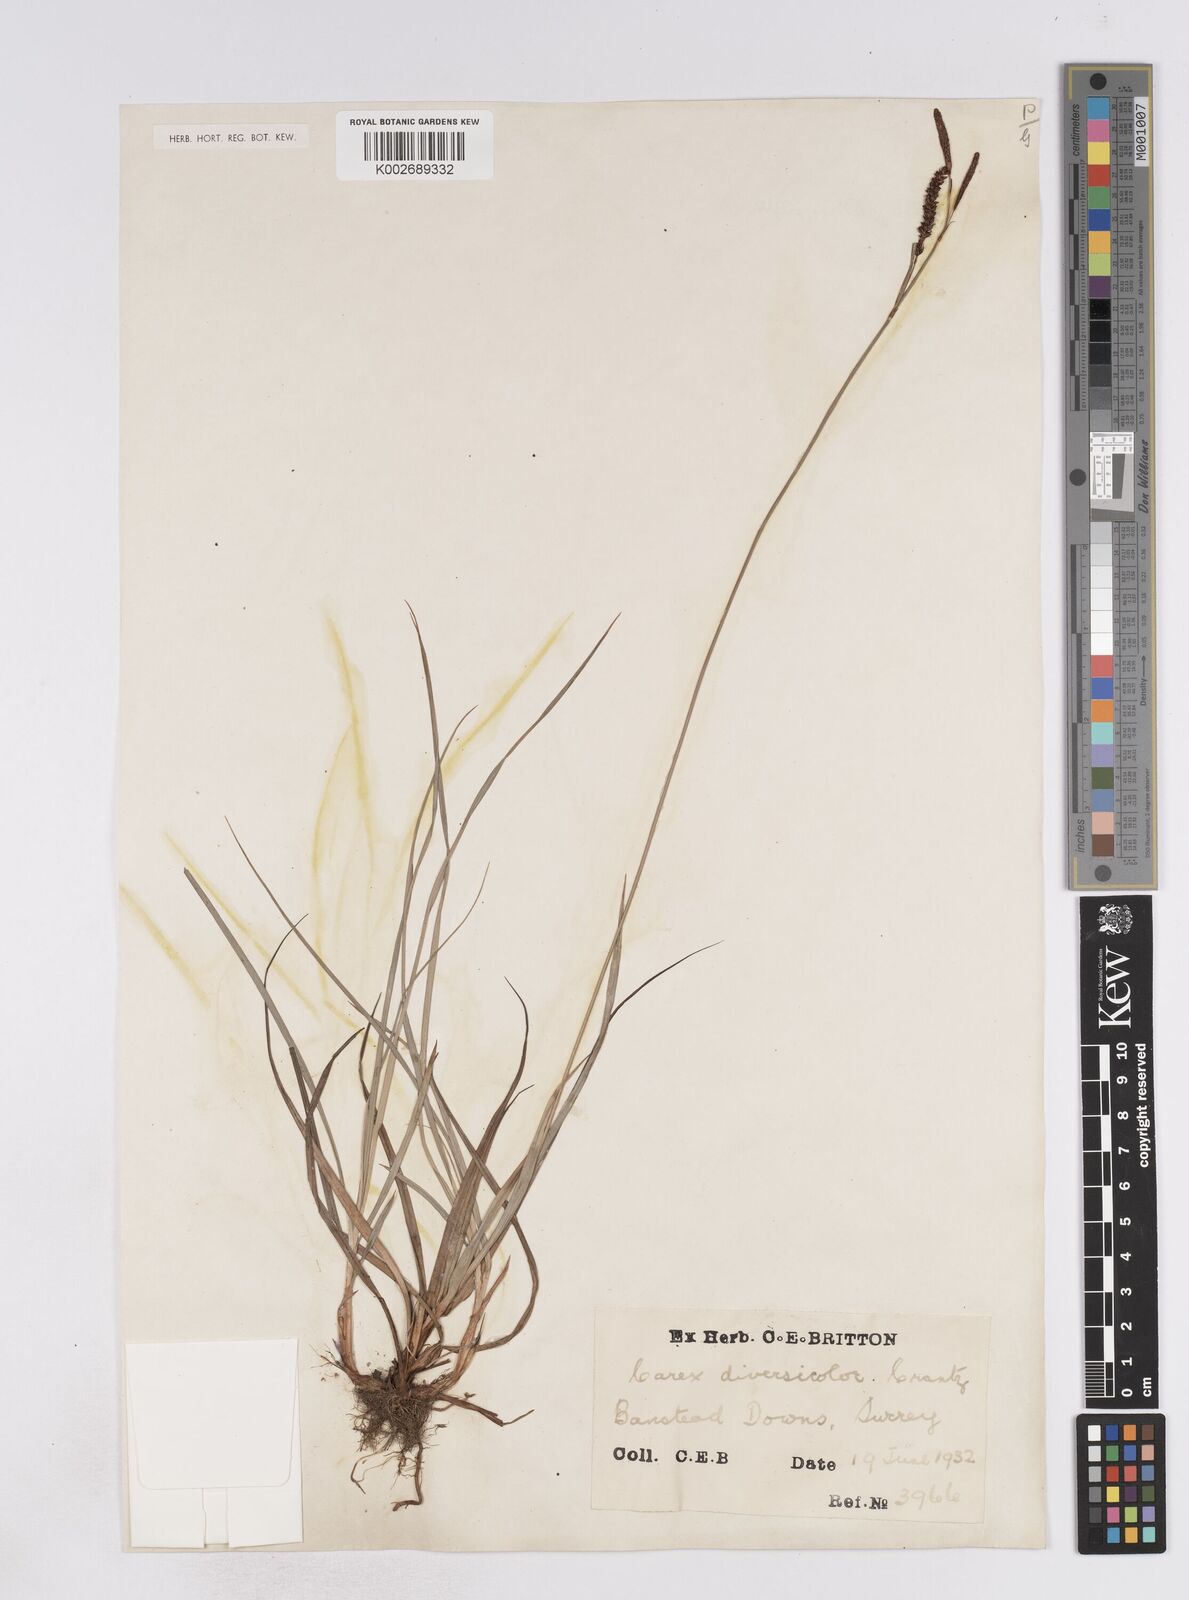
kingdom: Plantae
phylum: Tracheophyta
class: Liliopsida
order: Poales
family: Cyperaceae
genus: Carex
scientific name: Carex flacca
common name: Glaucous sedge
